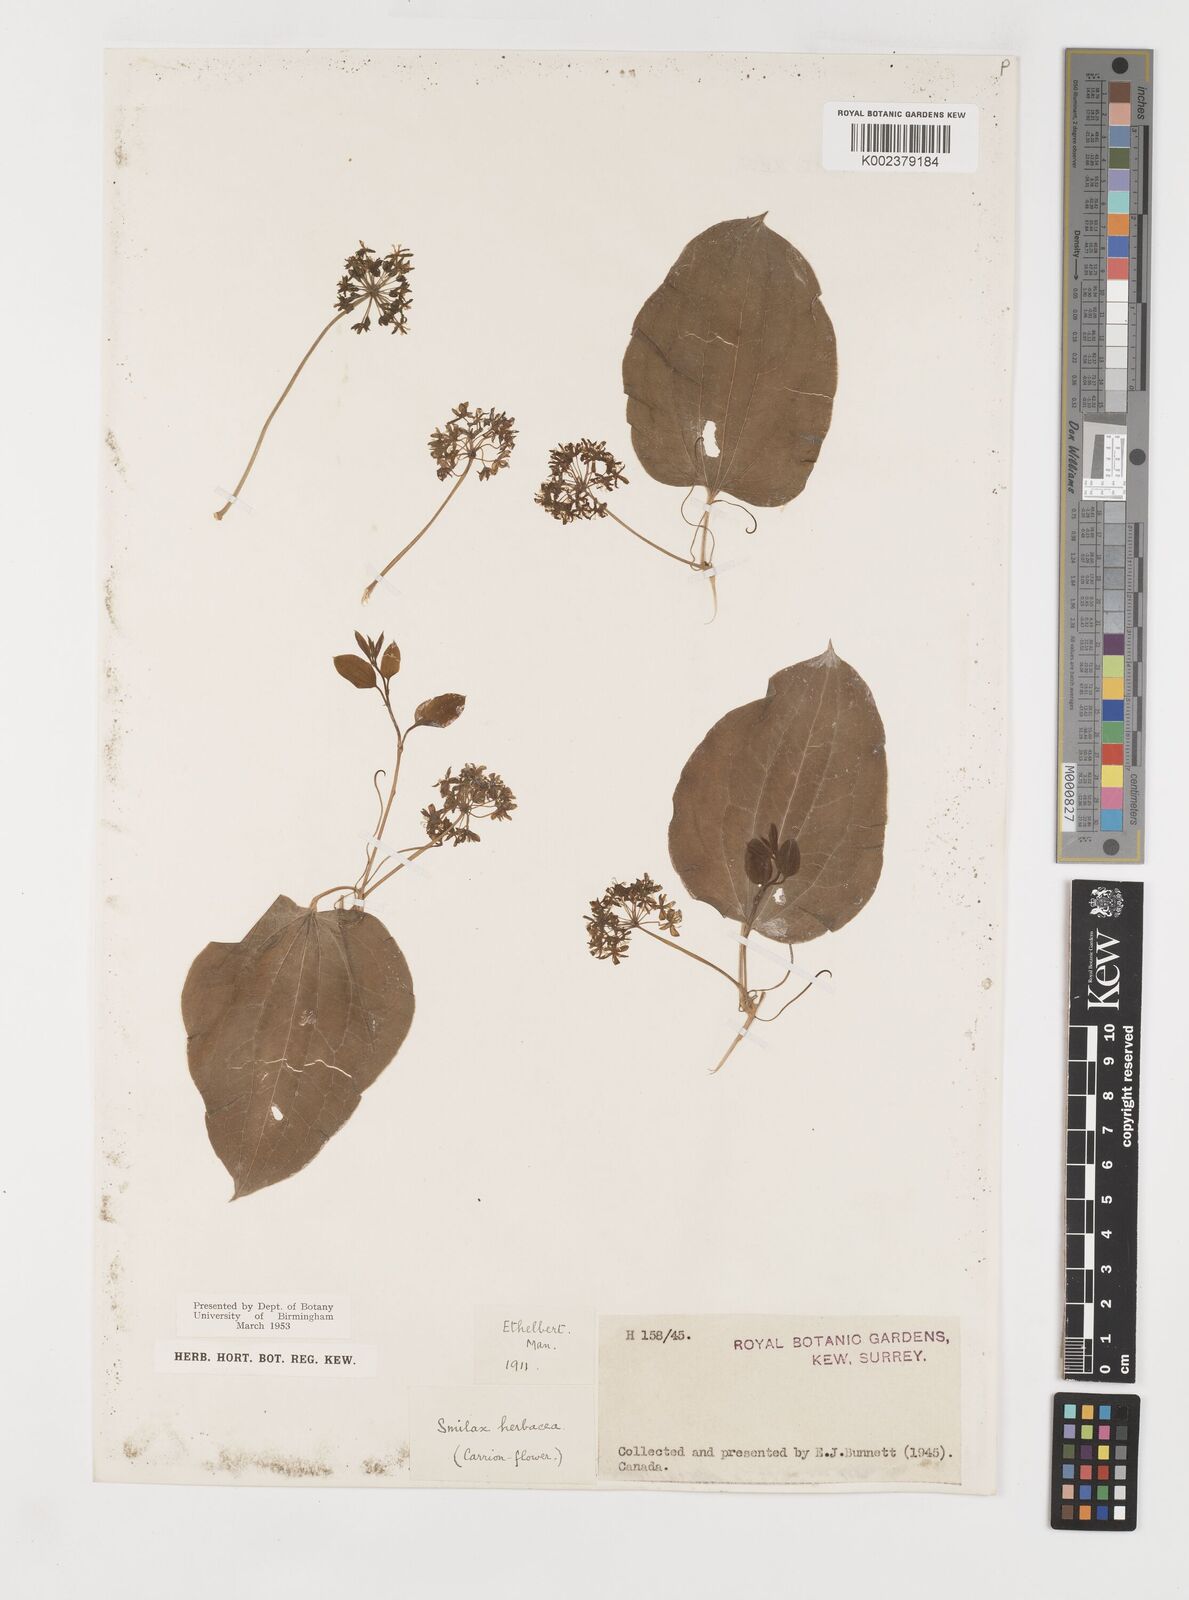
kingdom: Plantae
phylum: Tracheophyta
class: Liliopsida
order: Liliales
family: Smilacaceae
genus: Smilax
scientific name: Smilax herbacea
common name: Jacob's-ladder
